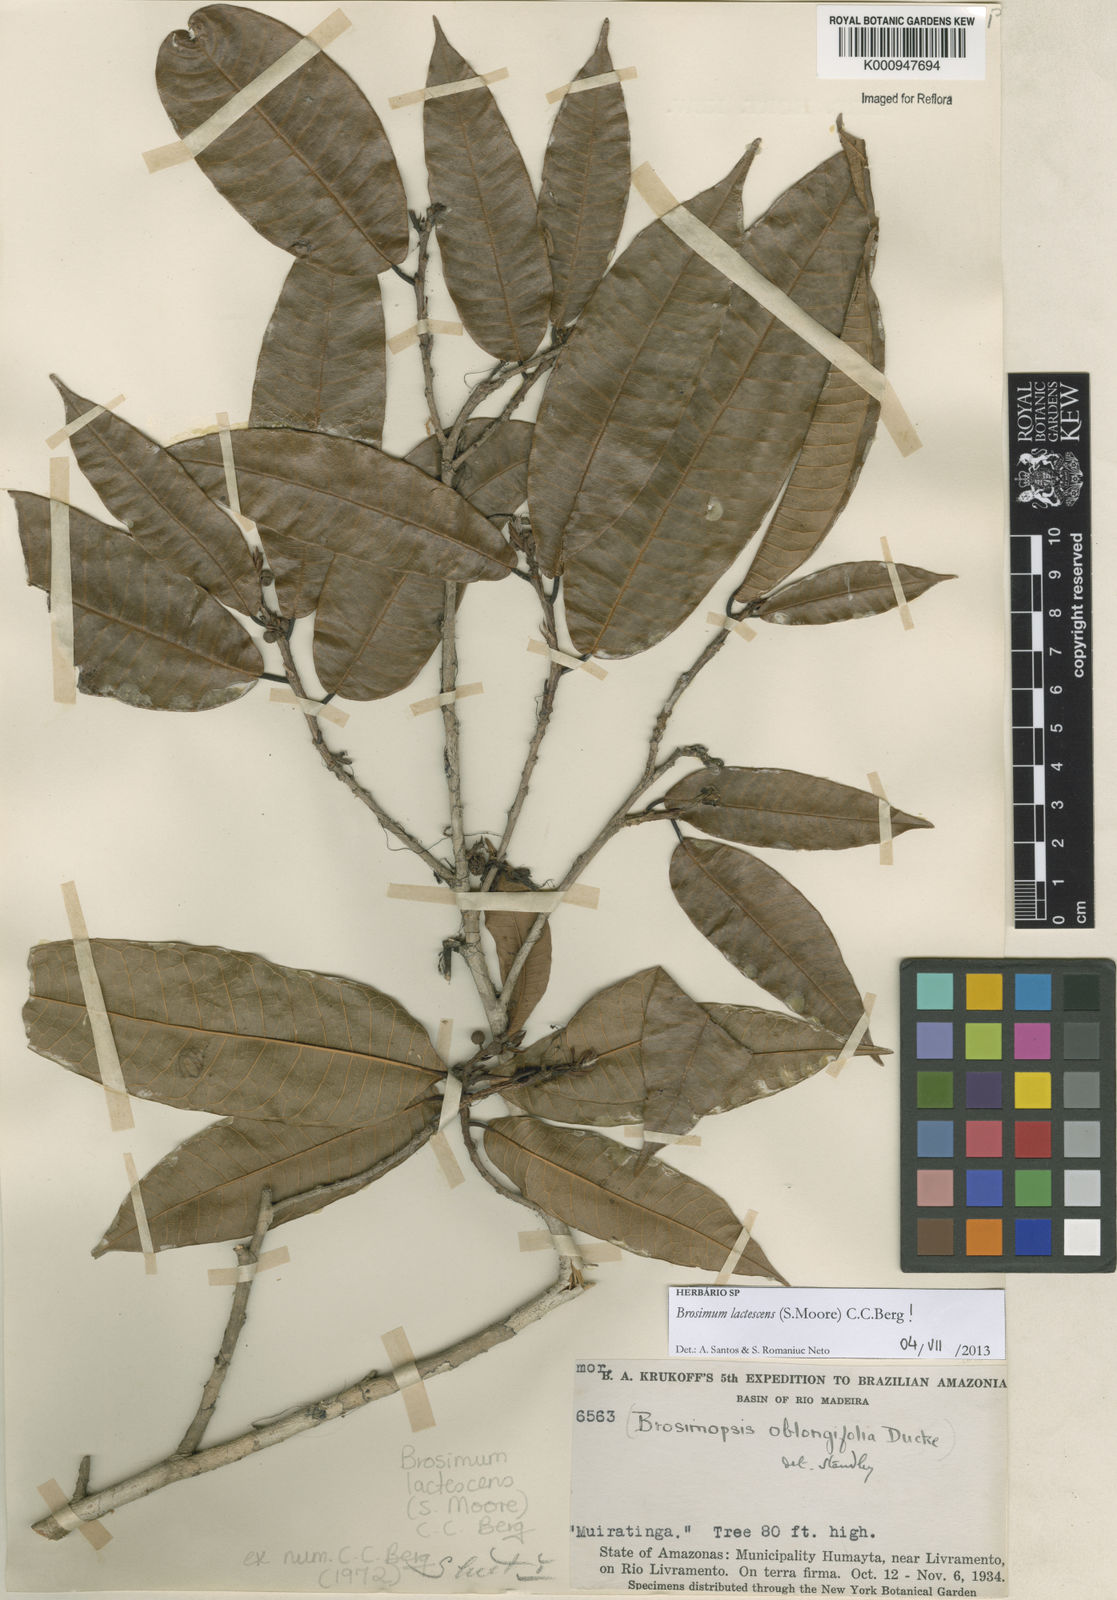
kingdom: Plantae
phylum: Tracheophyta
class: Magnoliopsida
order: Rosales
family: Moraceae
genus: Brosimum
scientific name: Brosimum lactescens
